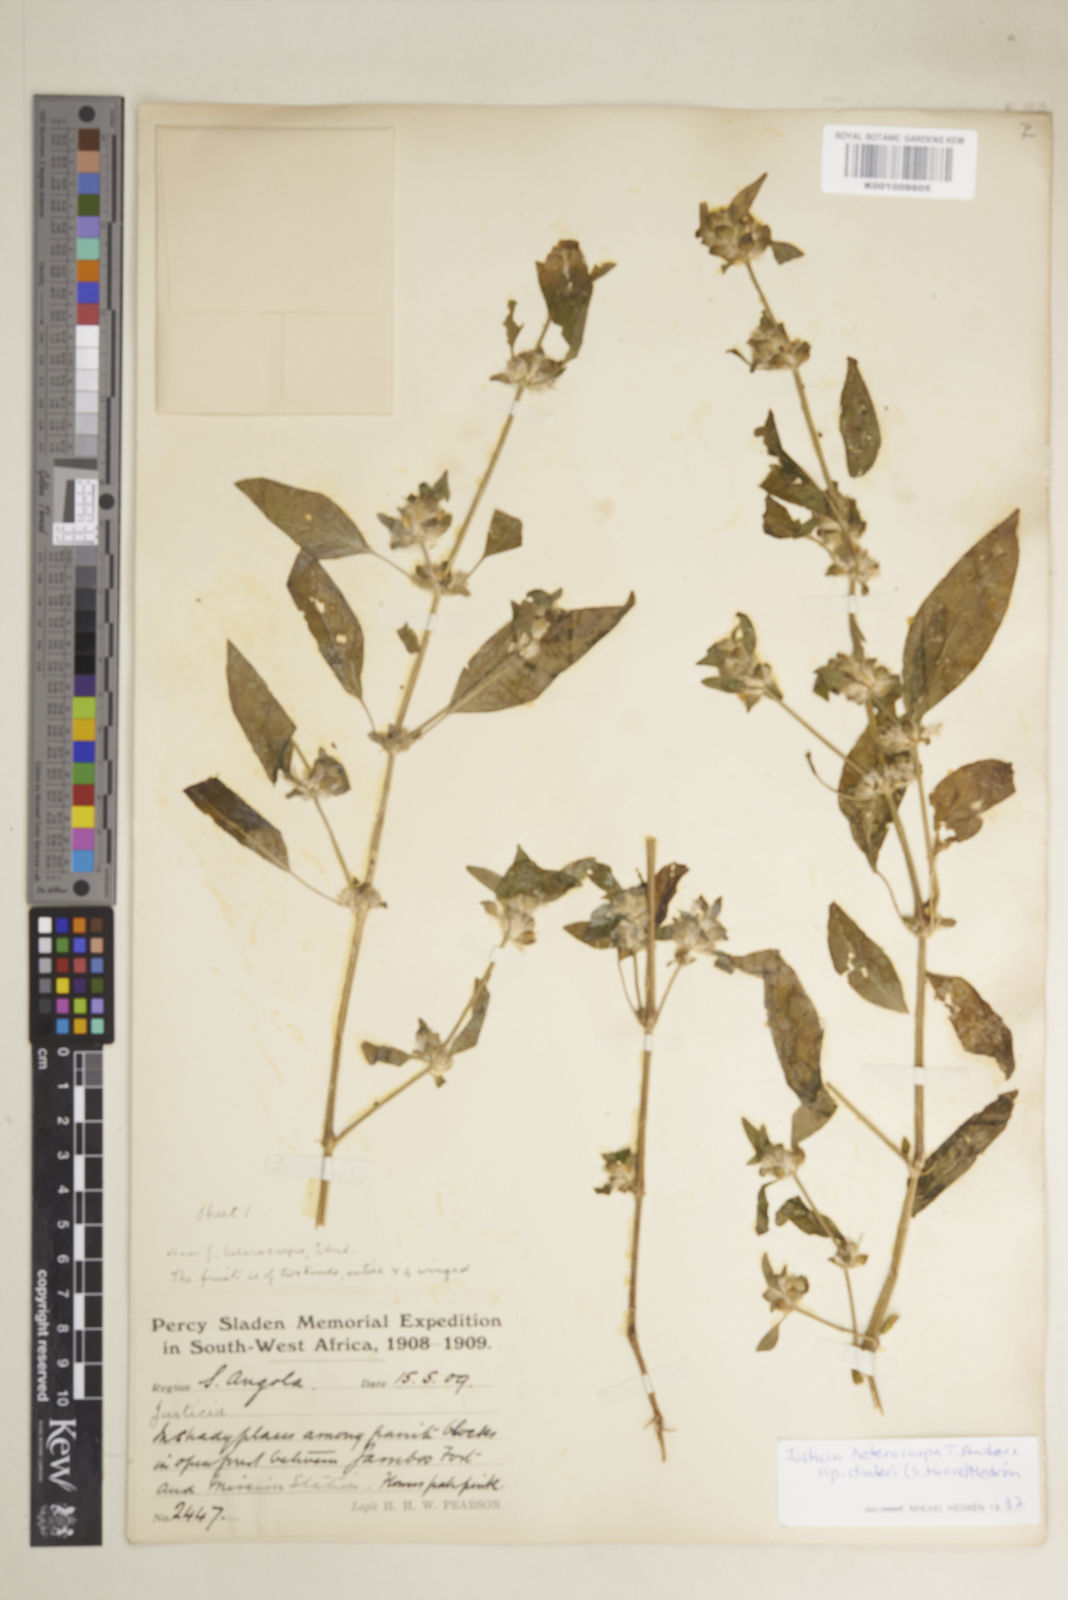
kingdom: Plantae
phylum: Tracheophyta
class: Magnoliopsida
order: Lamiales
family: Acanthaceae
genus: Justicia
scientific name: Justicia heterocarpa
